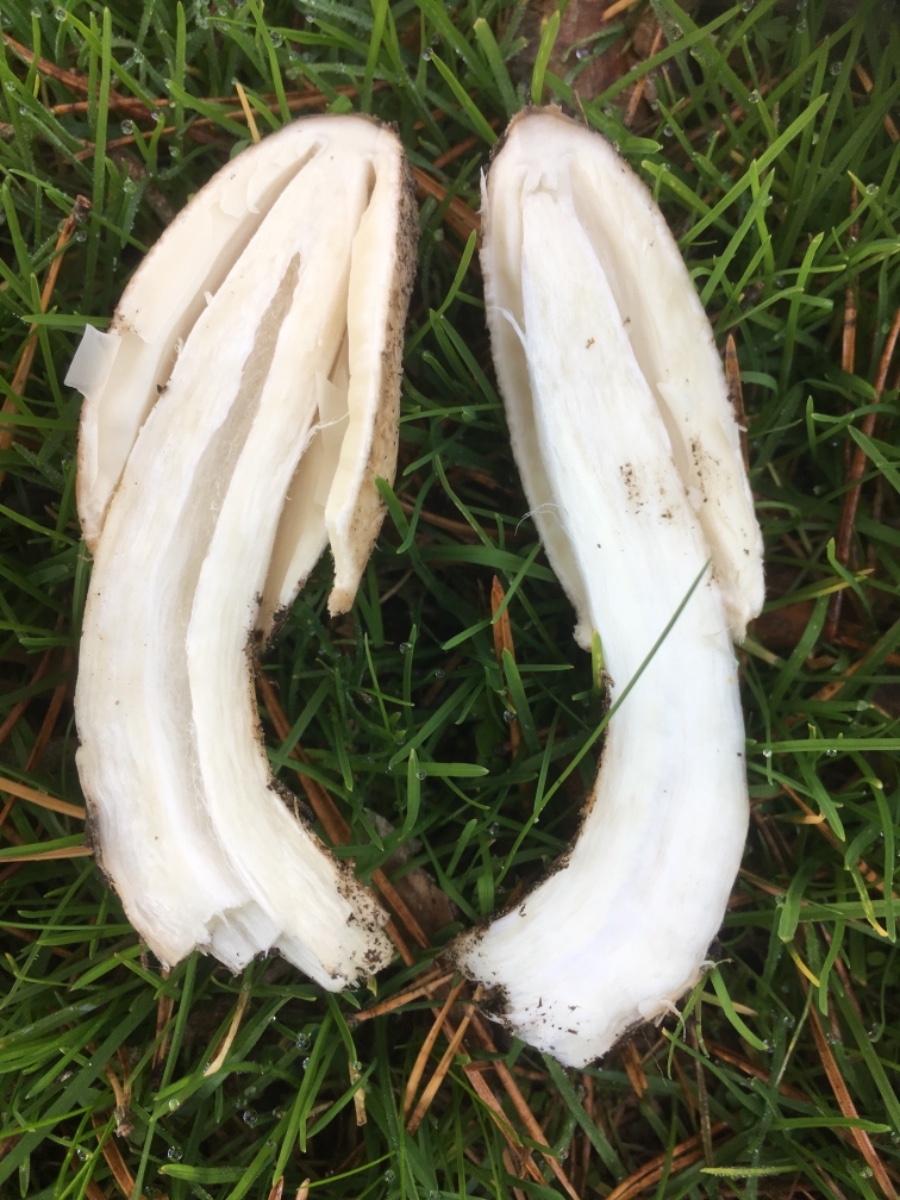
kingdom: Fungi
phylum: Basidiomycota
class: Agaricomycetes
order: Agaricales
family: Agaricaceae
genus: Coprinus
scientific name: Coprinus comatus
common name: stor parykhat
